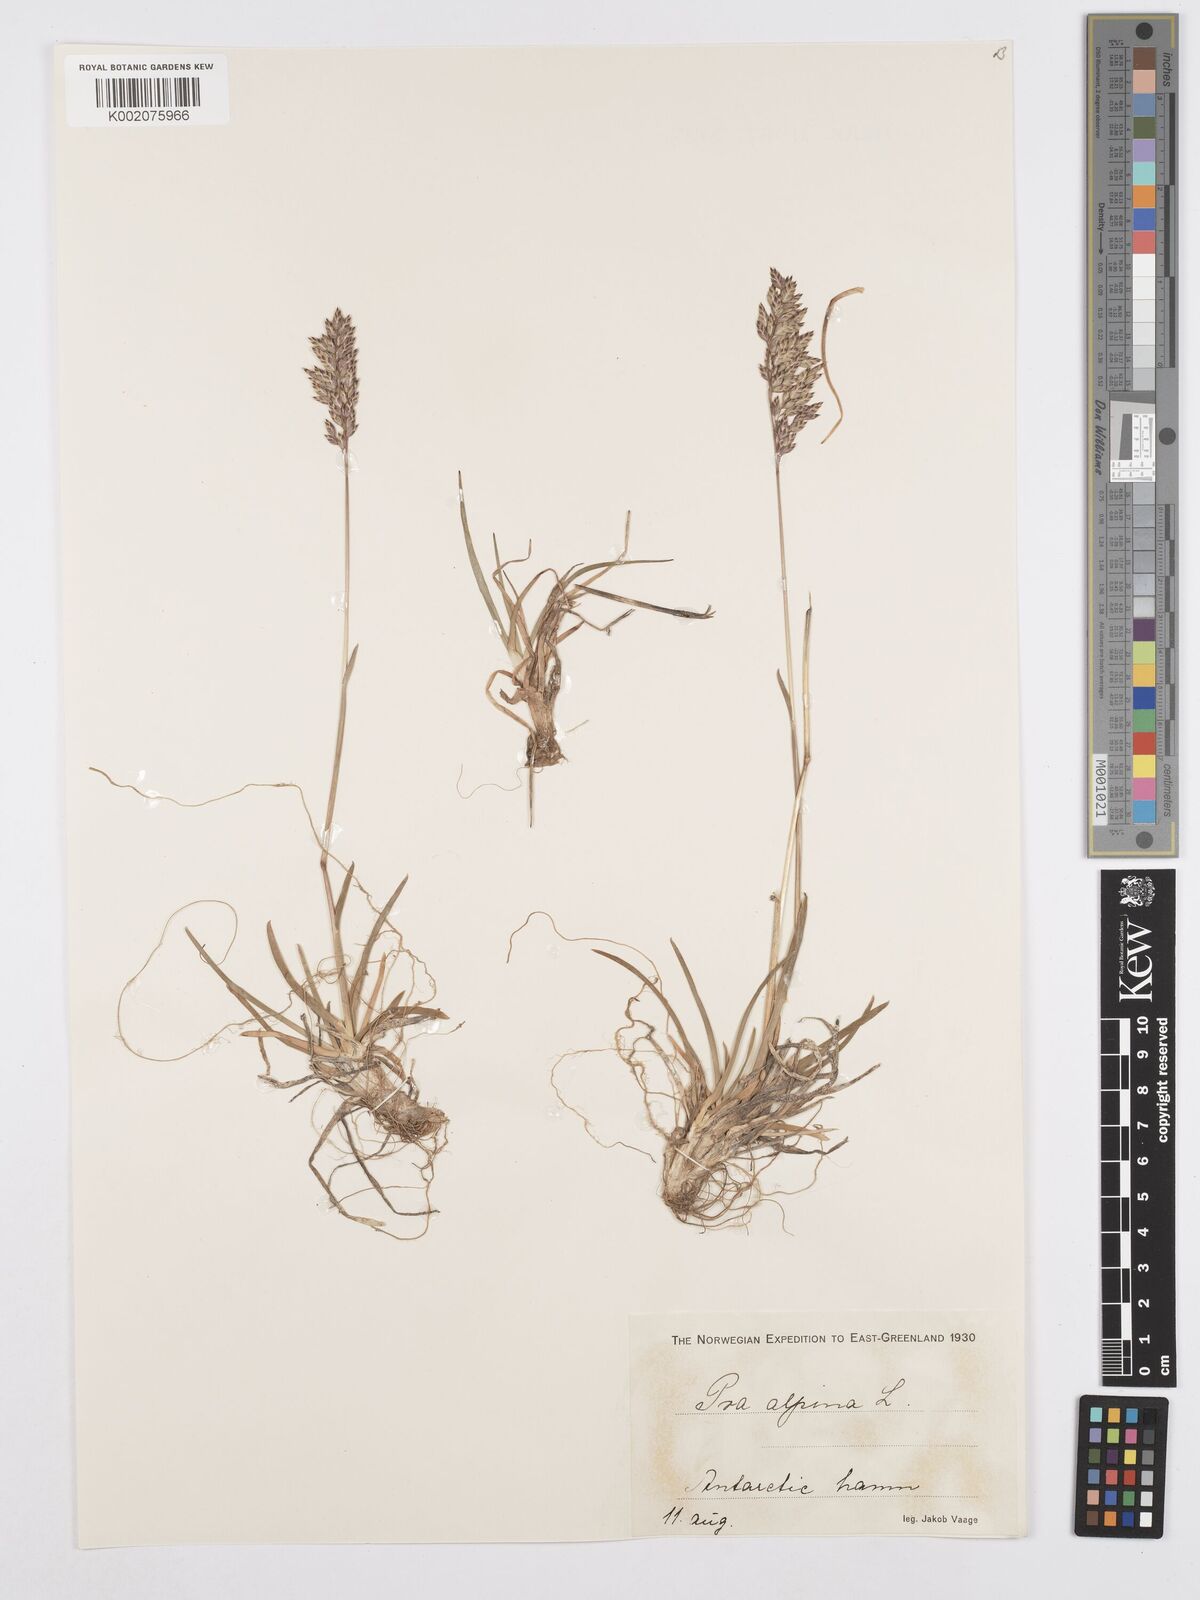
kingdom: Plantae
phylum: Tracheophyta
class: Liliopsida
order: Poales
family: Poaceae
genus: Poa
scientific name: Poa alpina
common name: Alpine bluegrass
